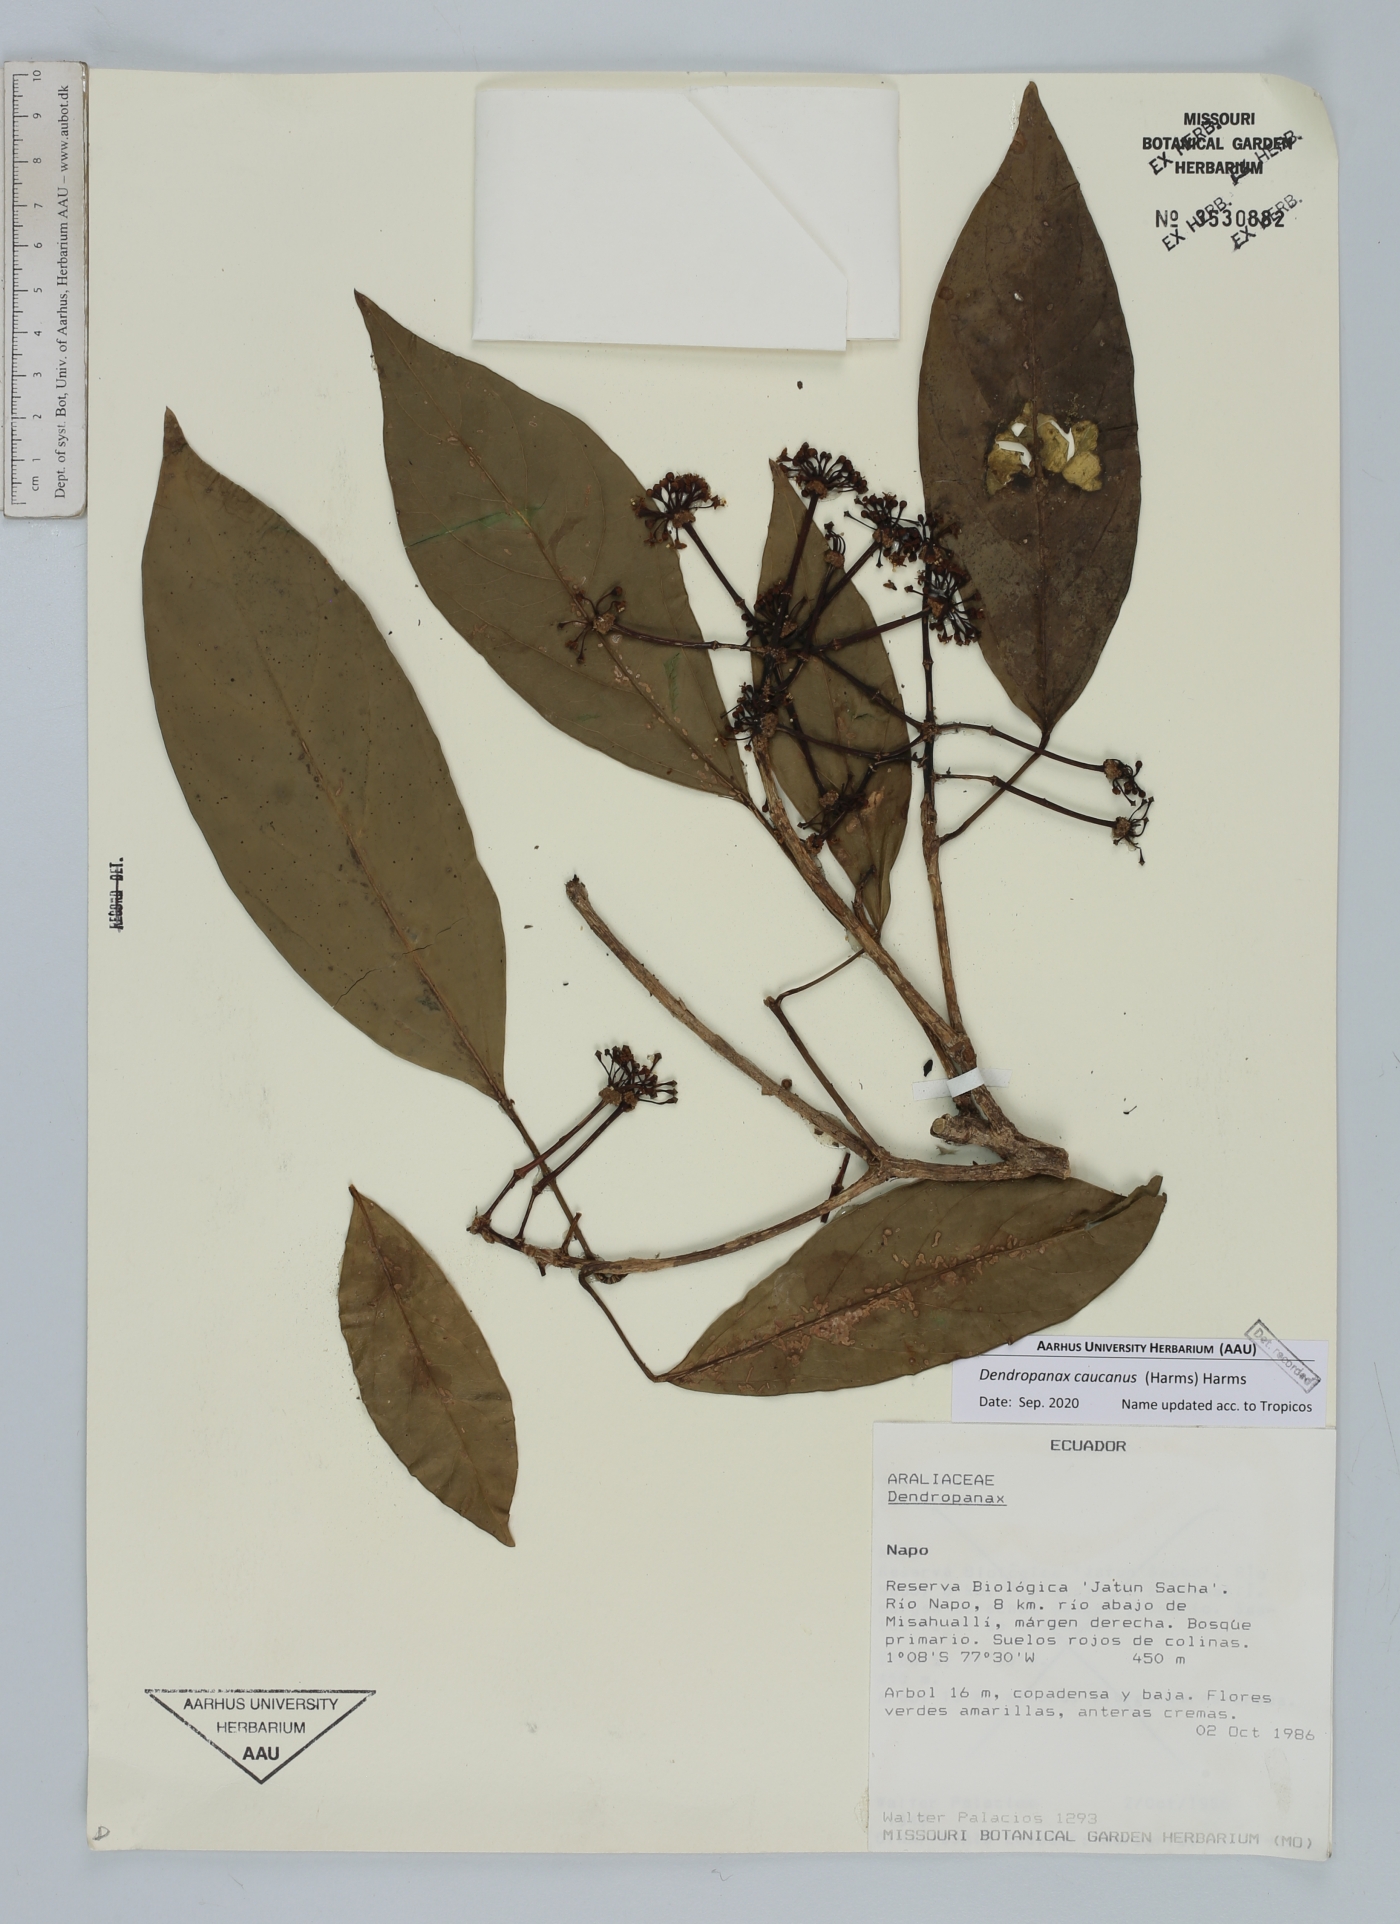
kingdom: Plantae
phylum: Tracheophyta
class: Magnoliopsida
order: Apiales
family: Araliaceae
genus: Dendropanax
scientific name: Dendropanax caucanus
